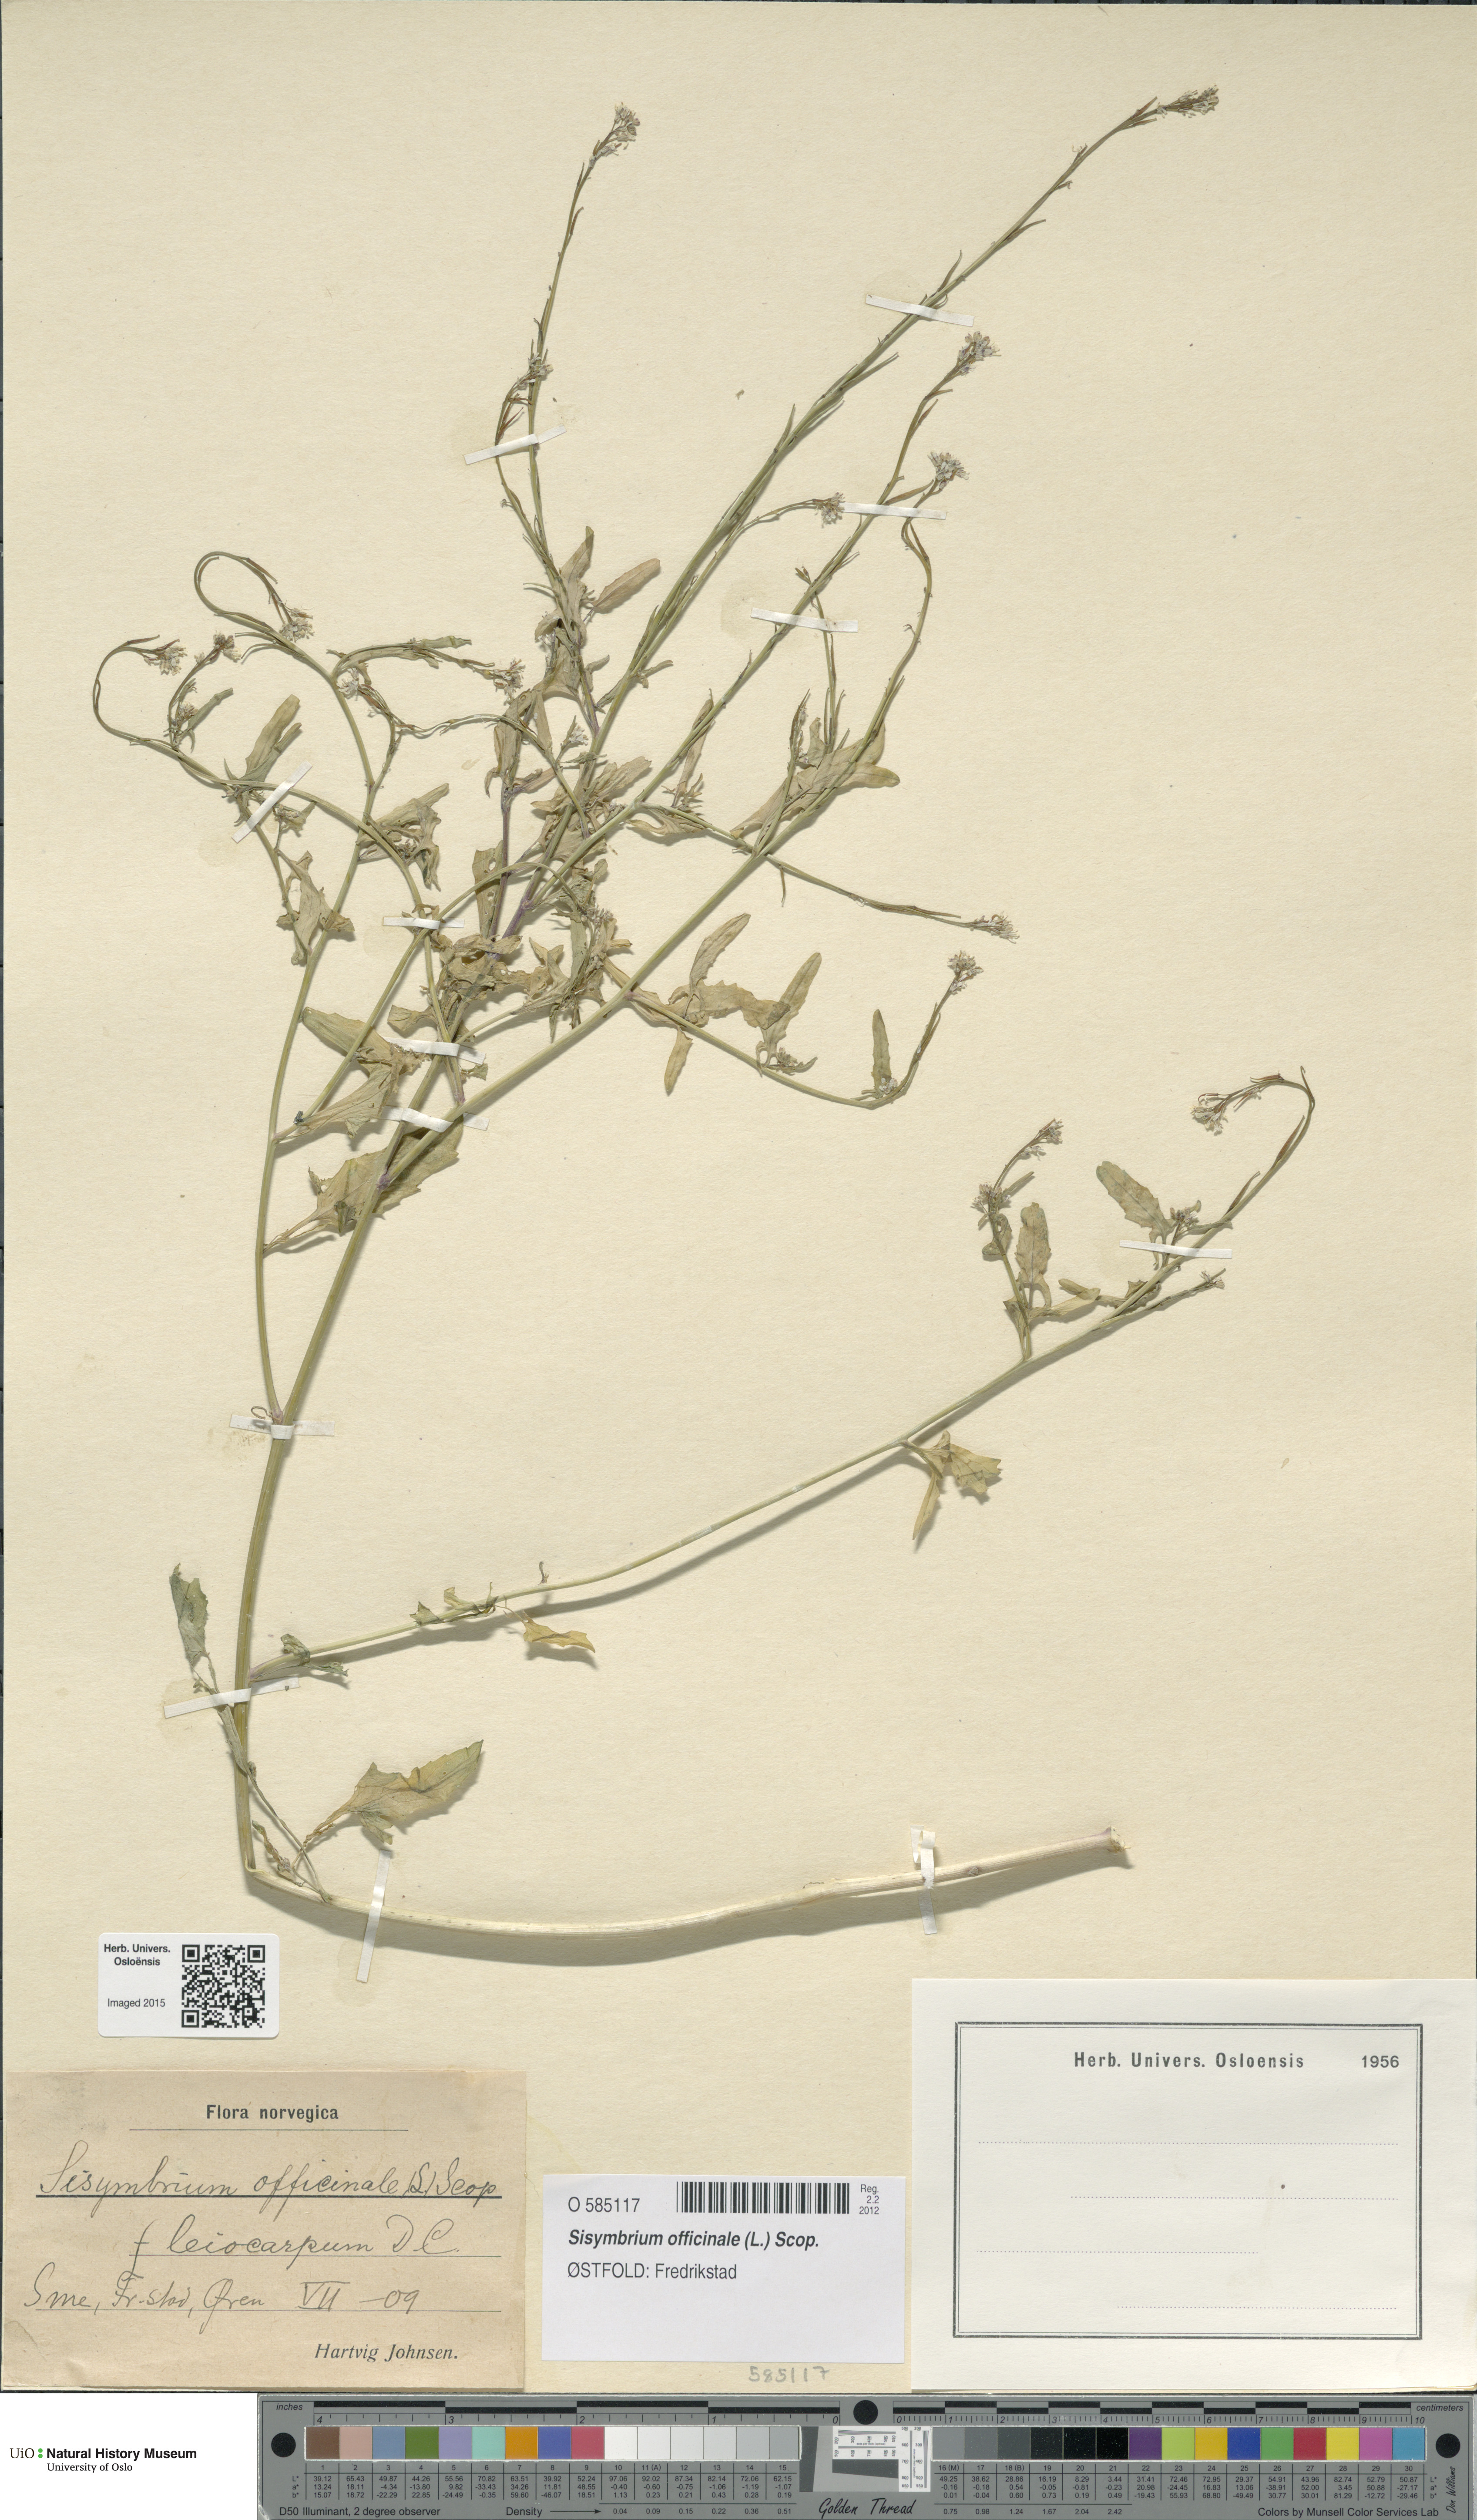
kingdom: Plantae
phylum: Tracheophyta
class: Magnoliopsida
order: Brassicales
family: Brassicaceae
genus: Sisymbrium
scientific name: Sisymbrium officinale
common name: Hedge mustard
